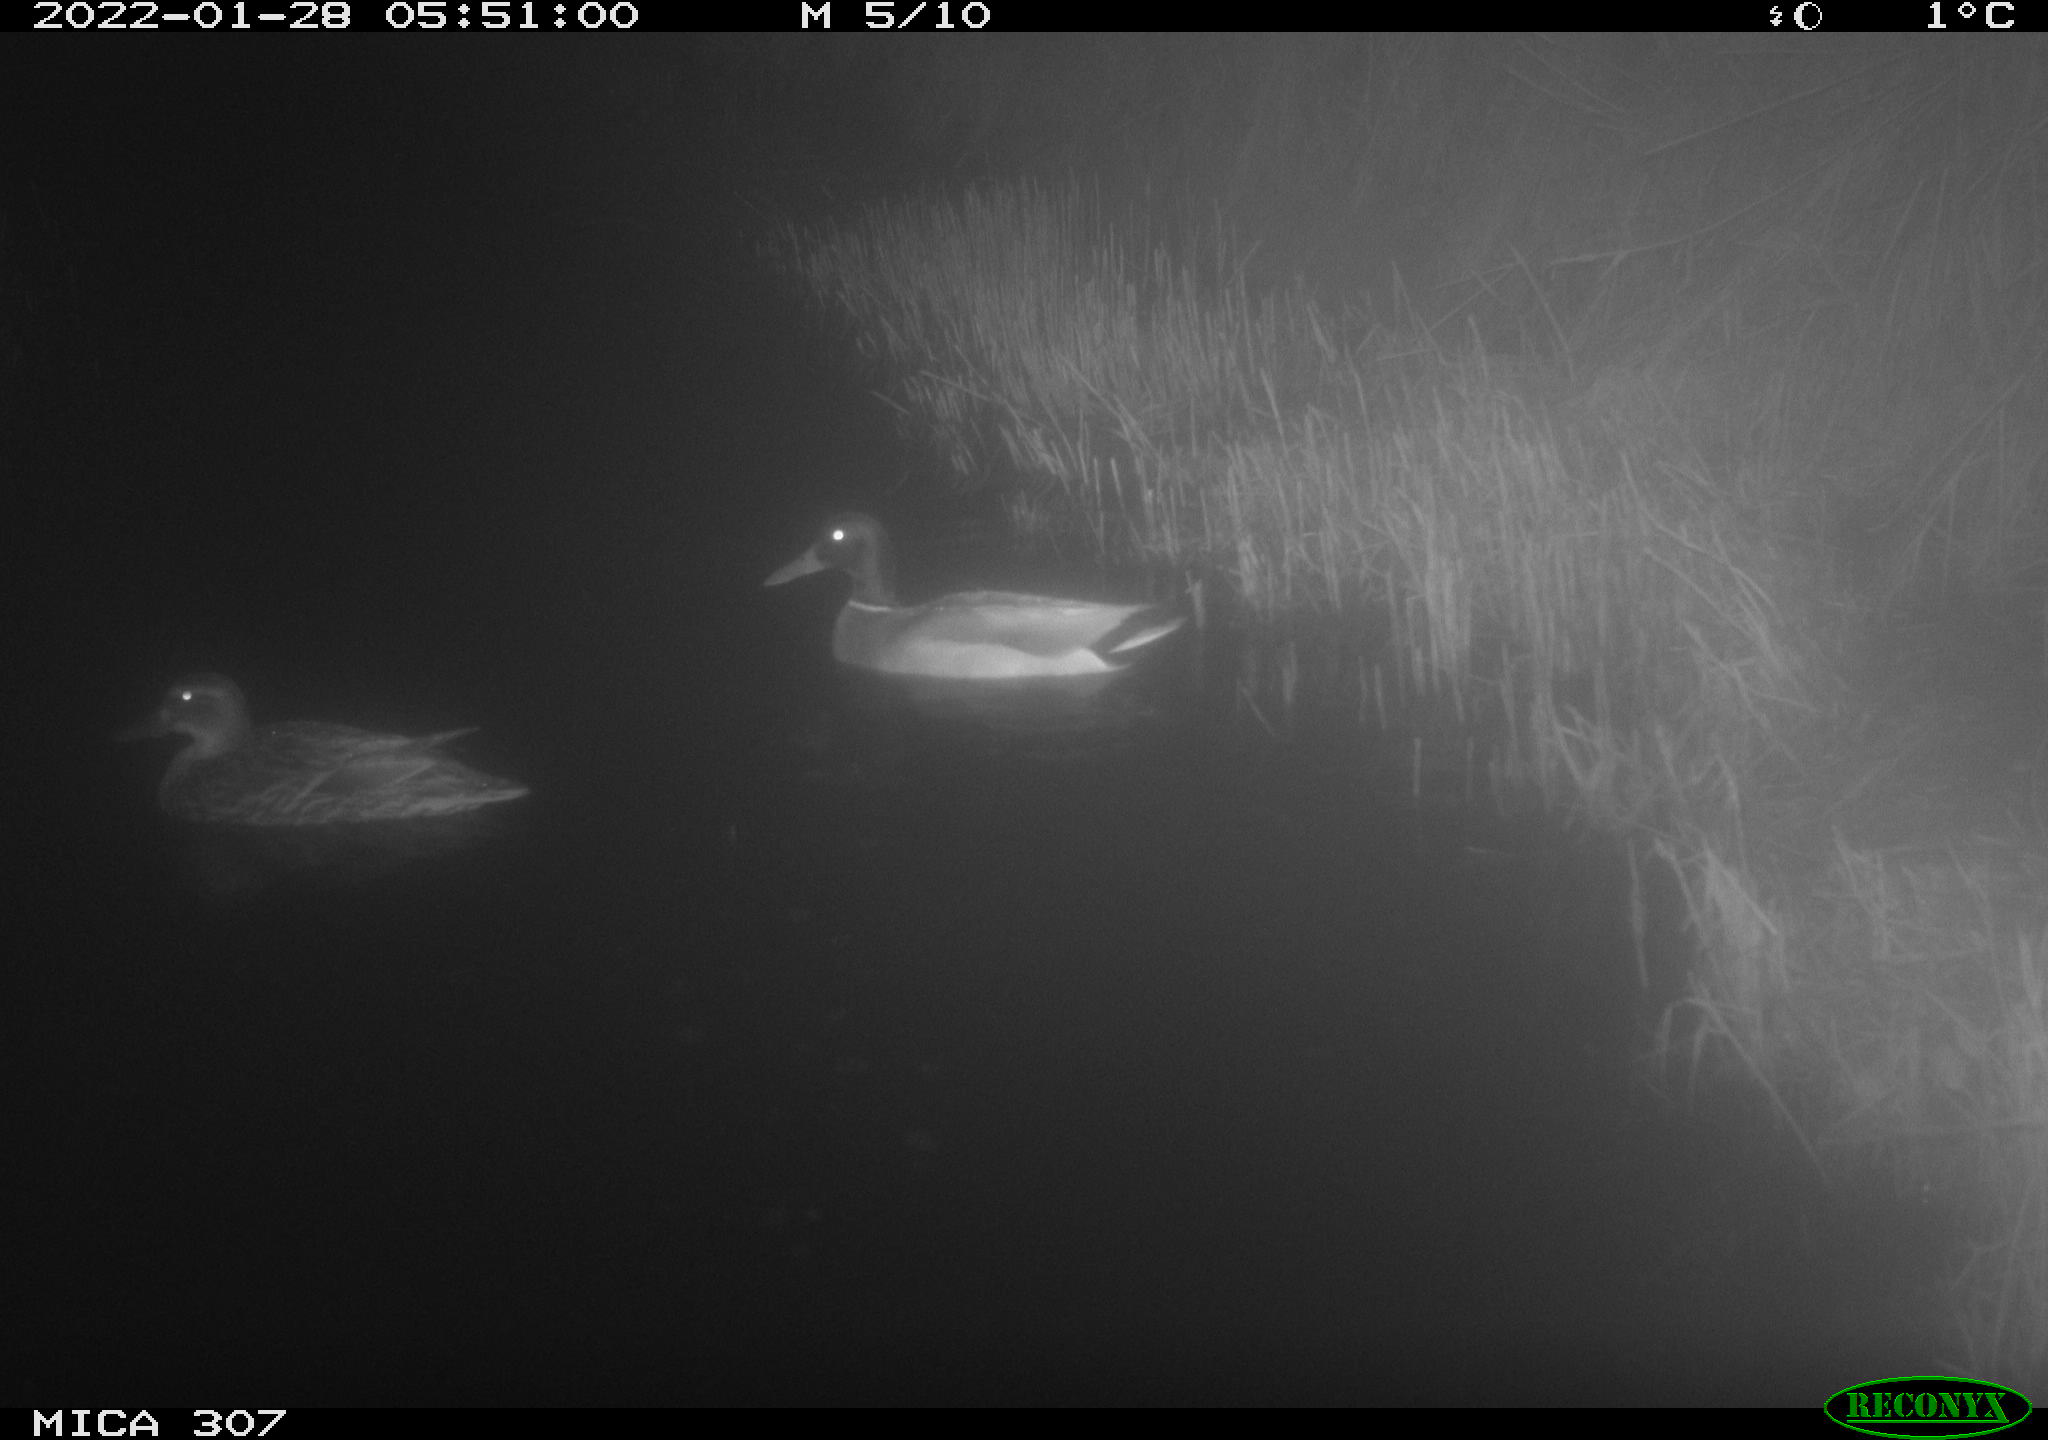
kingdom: Animalia
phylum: Chordata
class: Aves
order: Anseriformes
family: Anatidae
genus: Anas
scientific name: Anas
